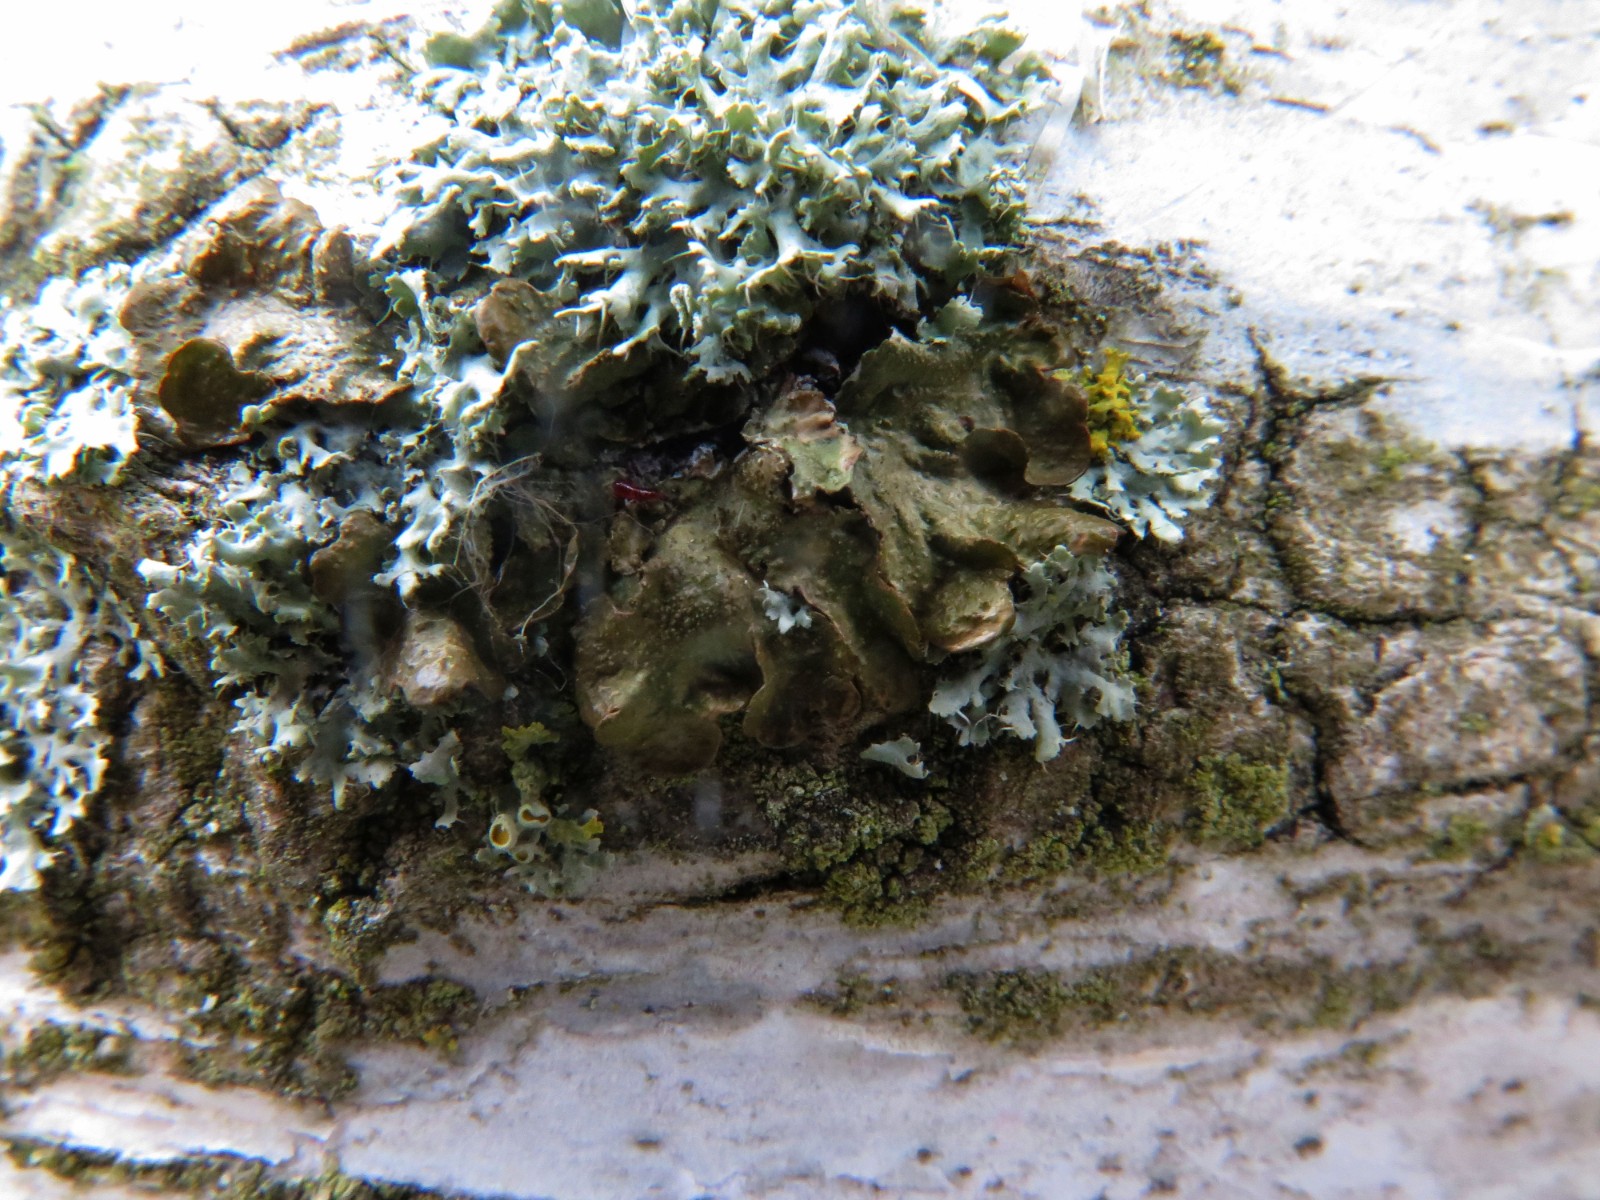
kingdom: Fungi
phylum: Ascomycota
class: Lecanoromycetes
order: Lecanorales
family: Parmeliaceae
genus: Melanelixia
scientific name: Melanelixia subaurifera
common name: guldpudret skållav
